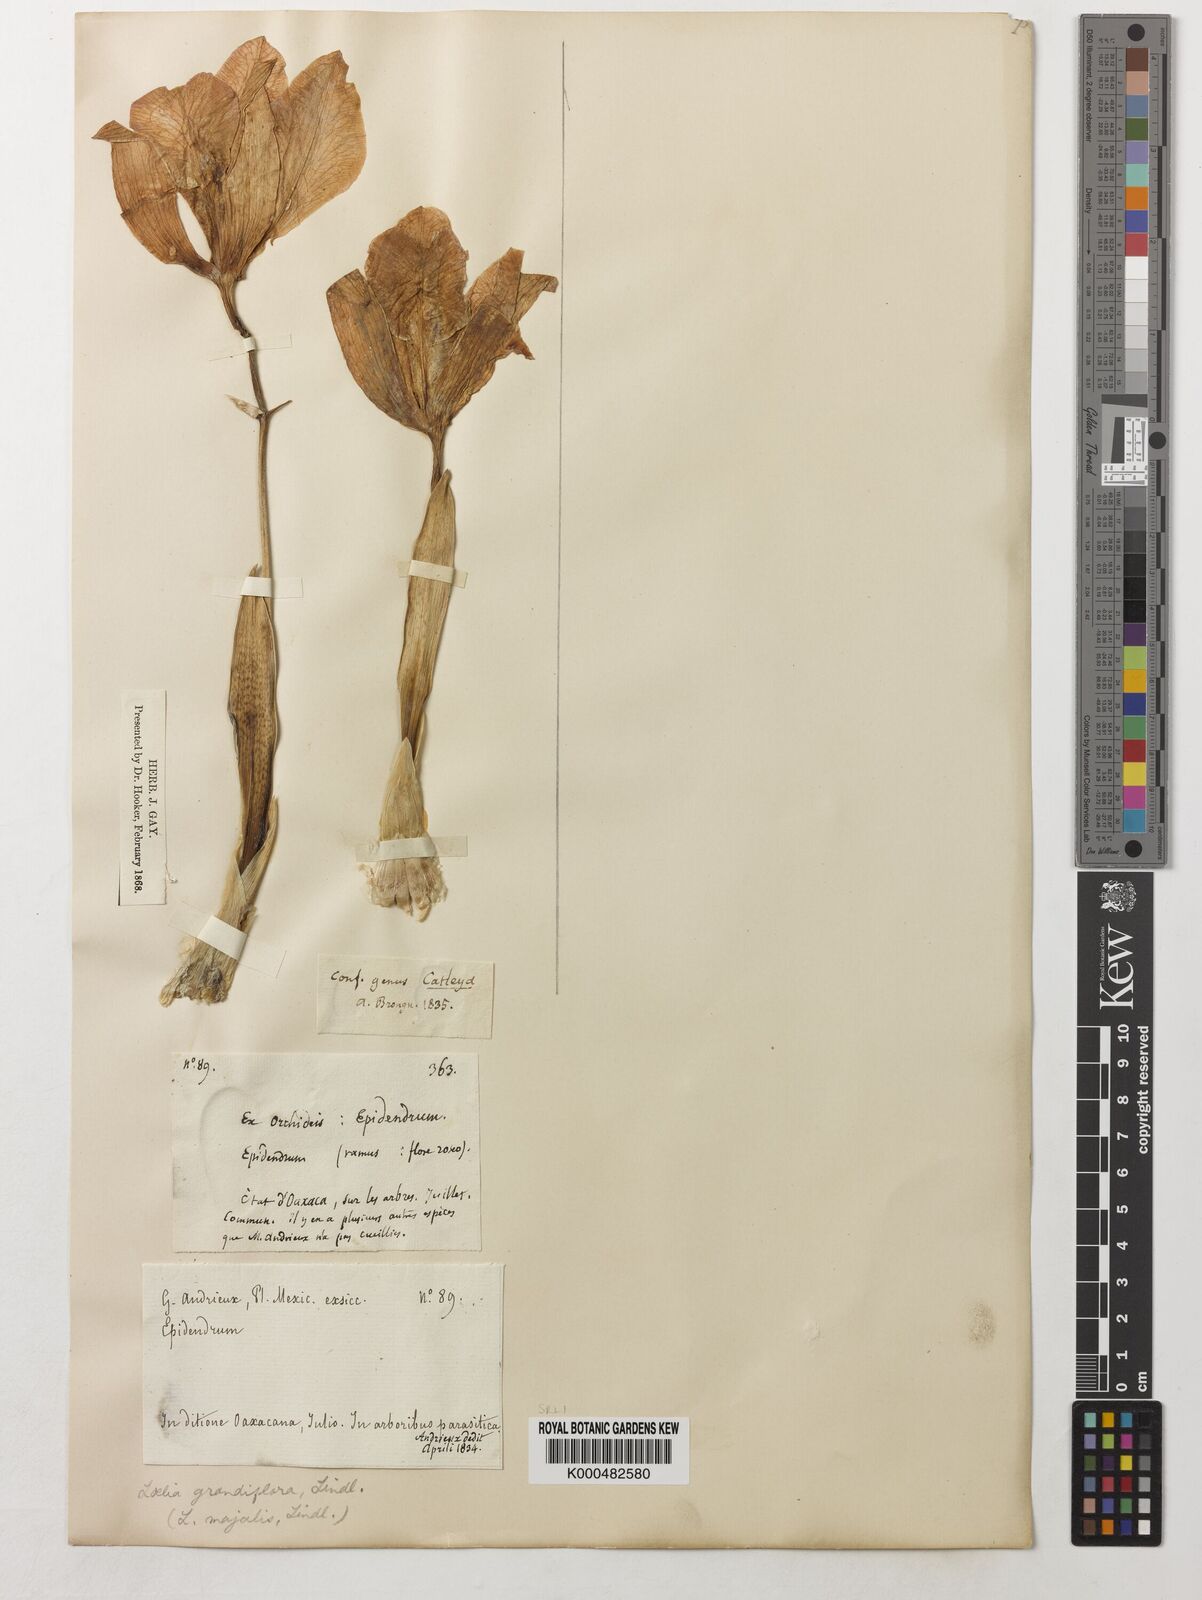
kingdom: Plantae
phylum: Tracheophyta
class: Liliopsida
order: Asparagales
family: Orchidaceae
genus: Laelia
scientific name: Laelia speciosa
